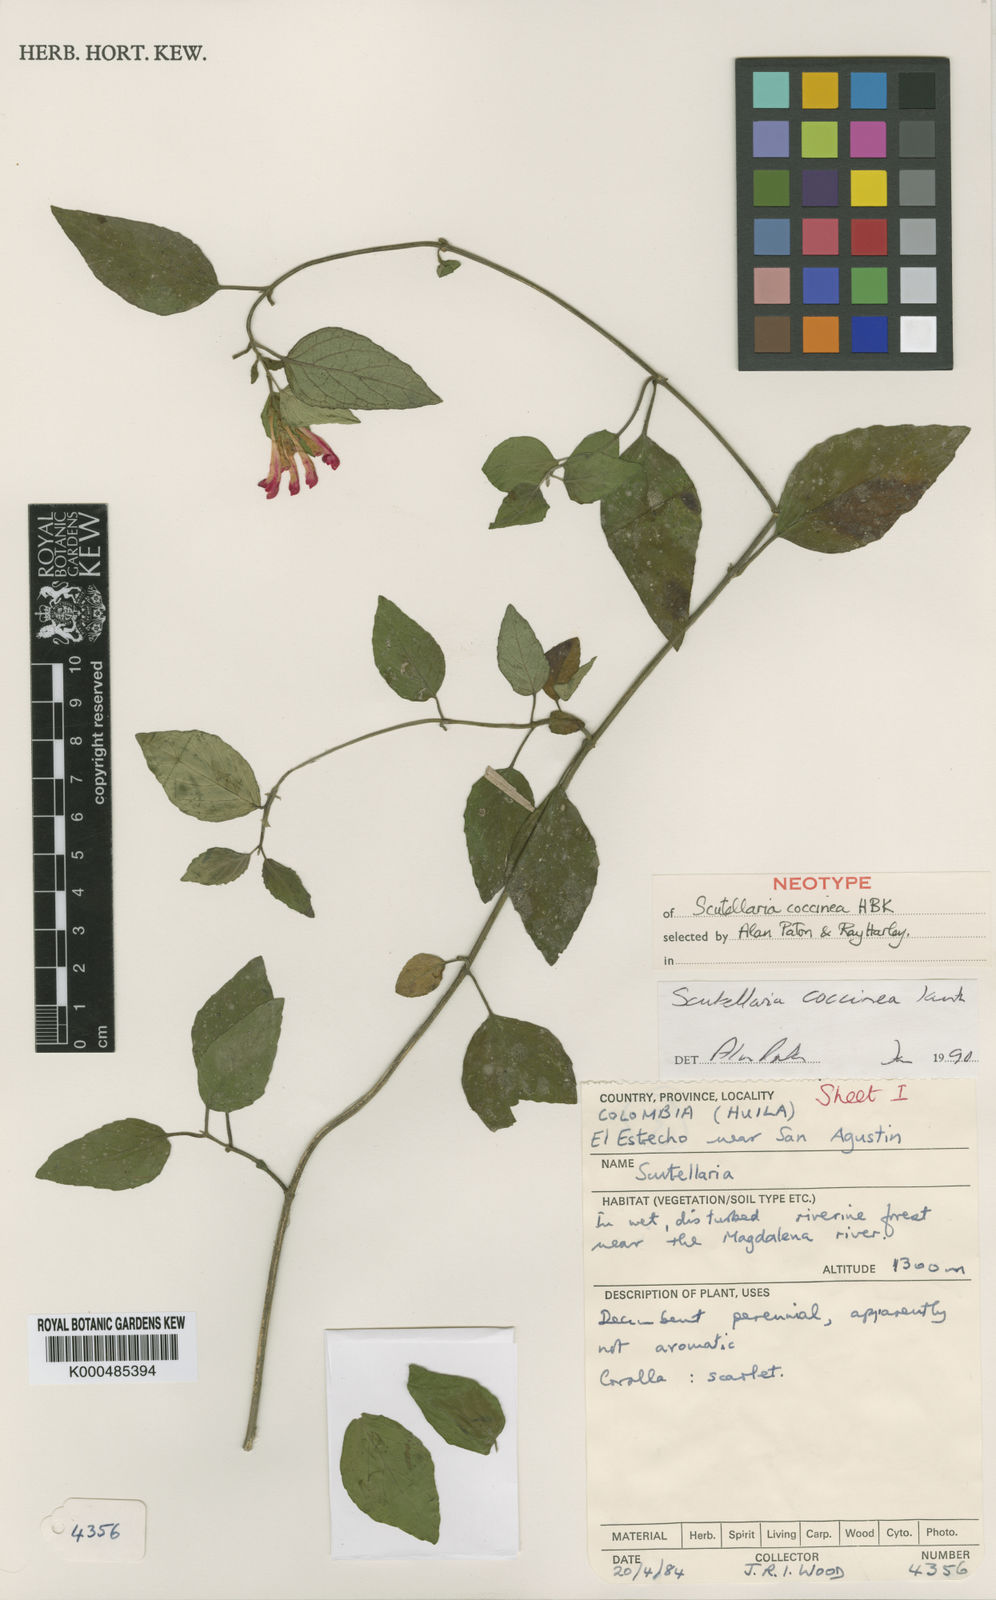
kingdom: Plantae
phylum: Tracheophyta
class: Magnoliopsida
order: Lamiales
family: Lamiaceae
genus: Scutellaria
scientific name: Scutellaria coccinea
